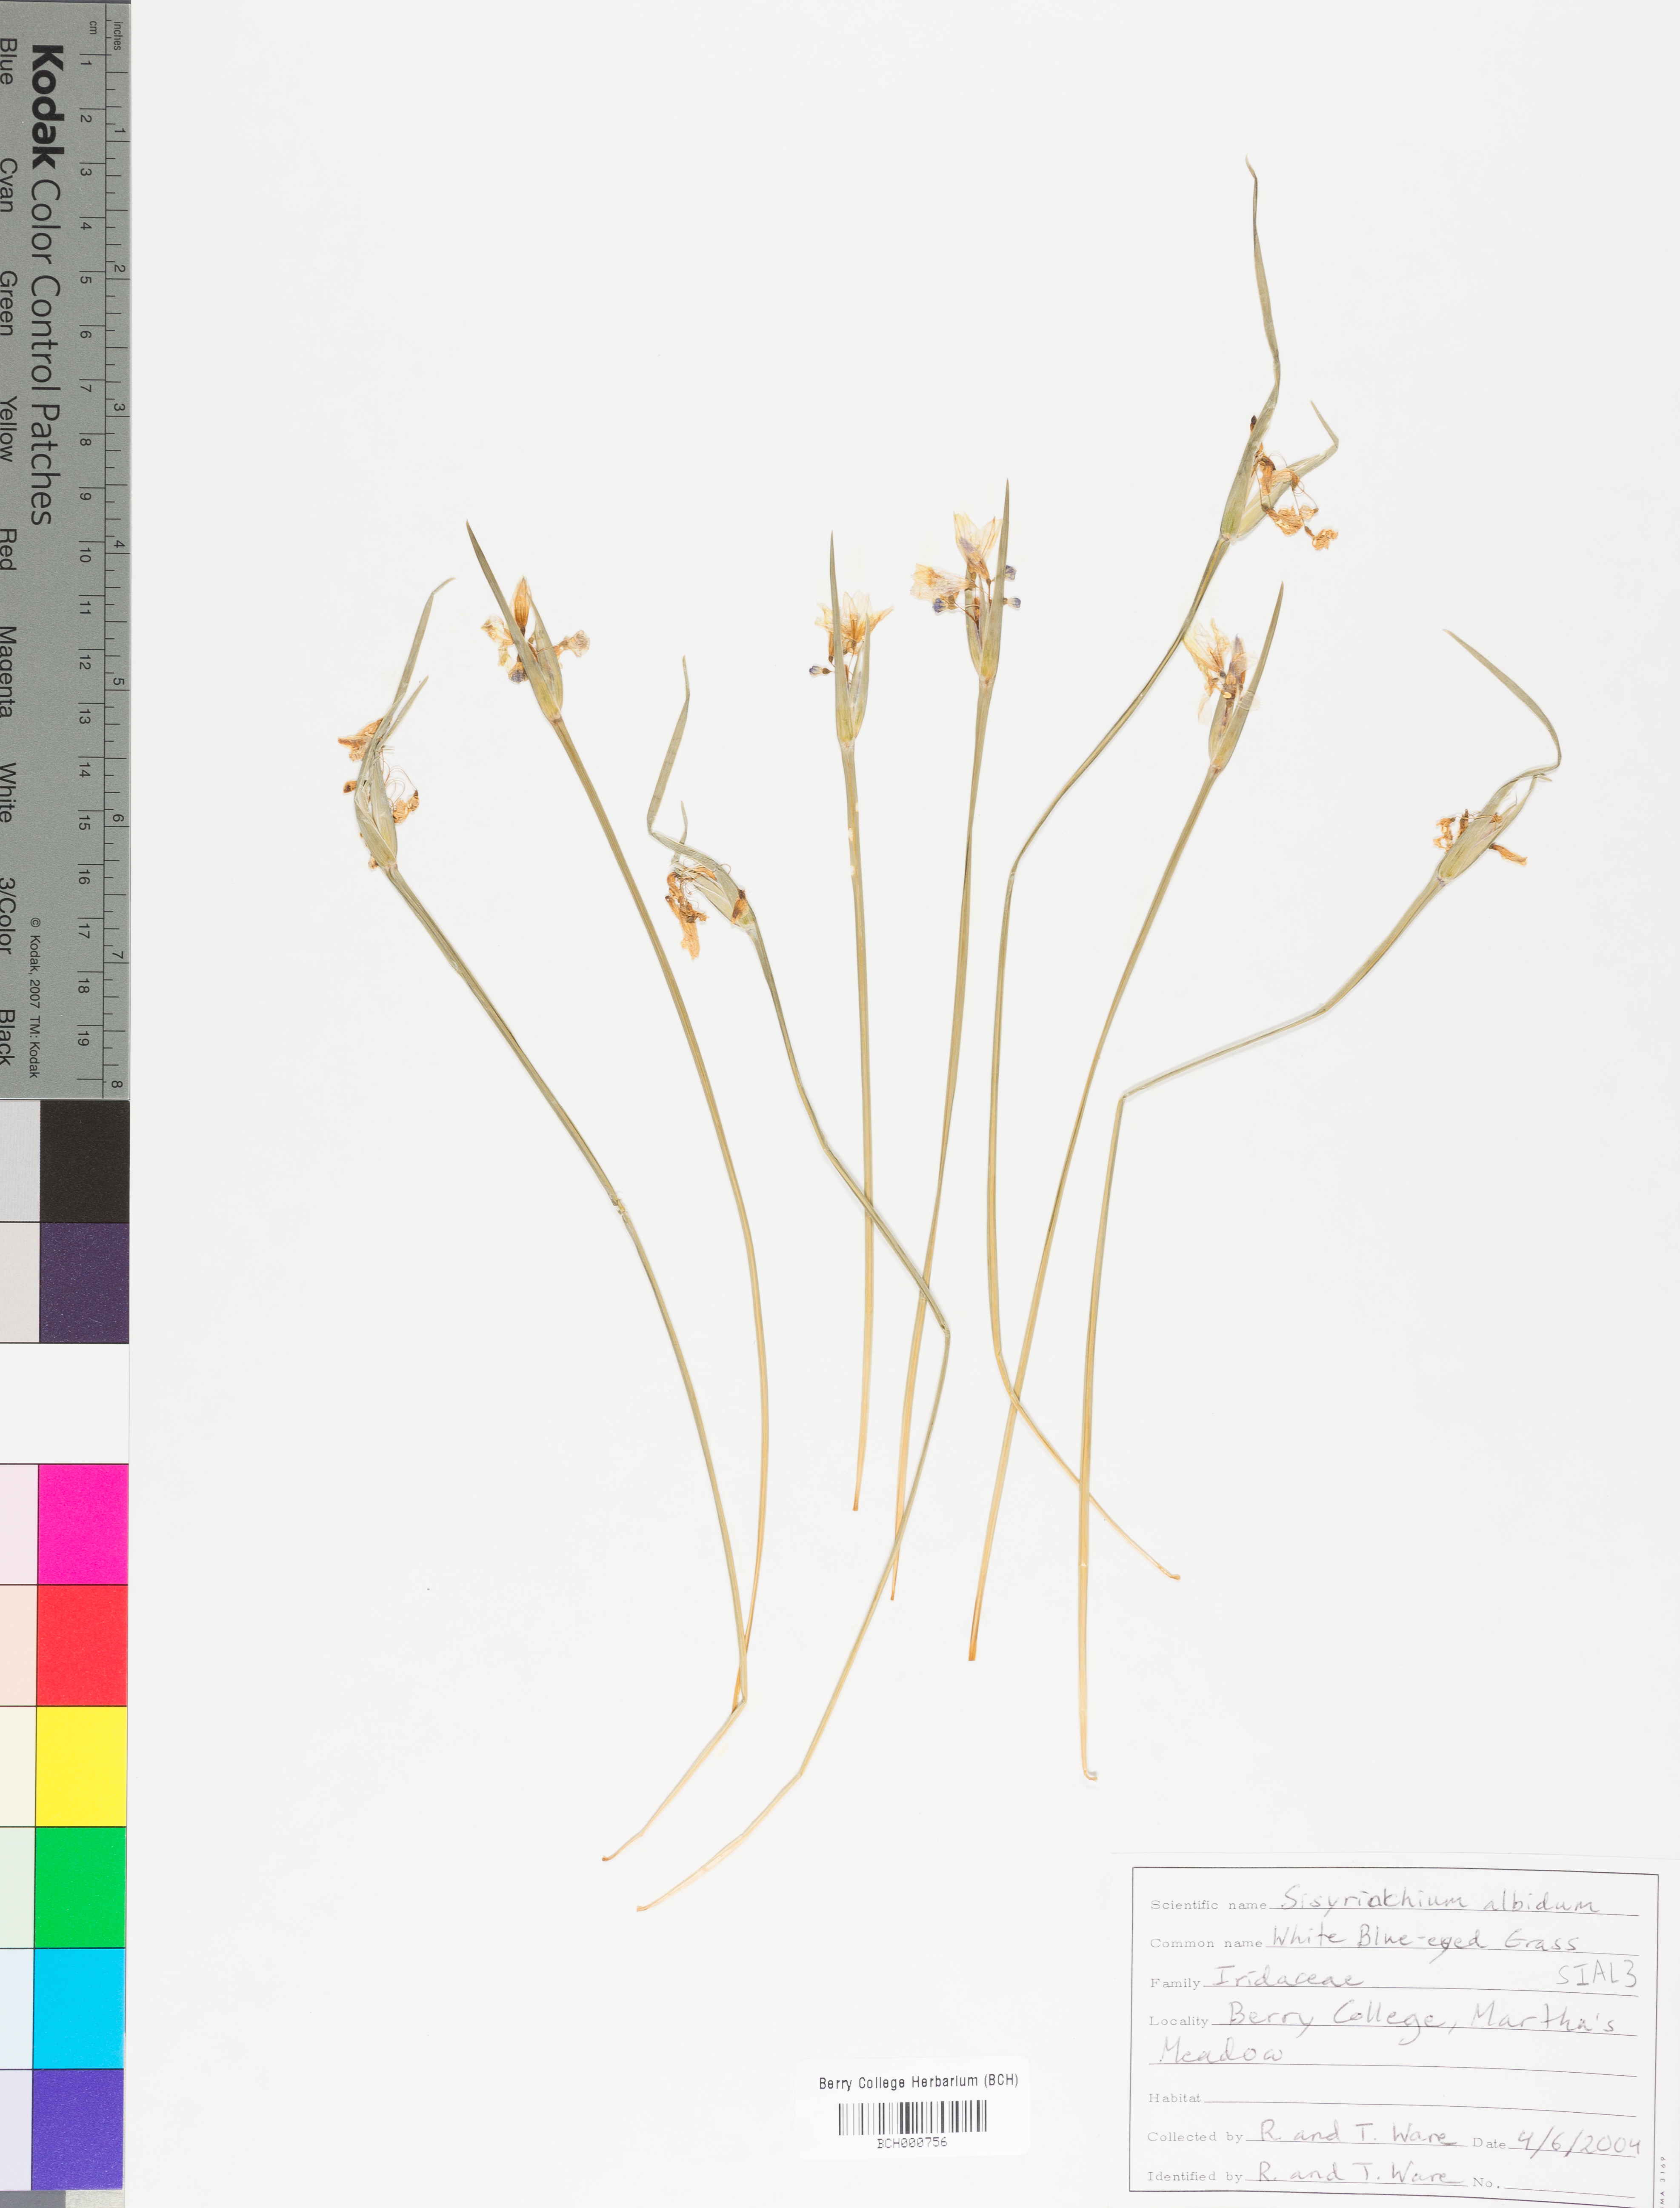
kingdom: Plantae
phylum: Tracheophyta
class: Liliopsida
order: Asparagales
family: Iridaceae
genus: Sisyrinchium
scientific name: Sisyrinchium albidum
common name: Pale blue-eyed-grass
